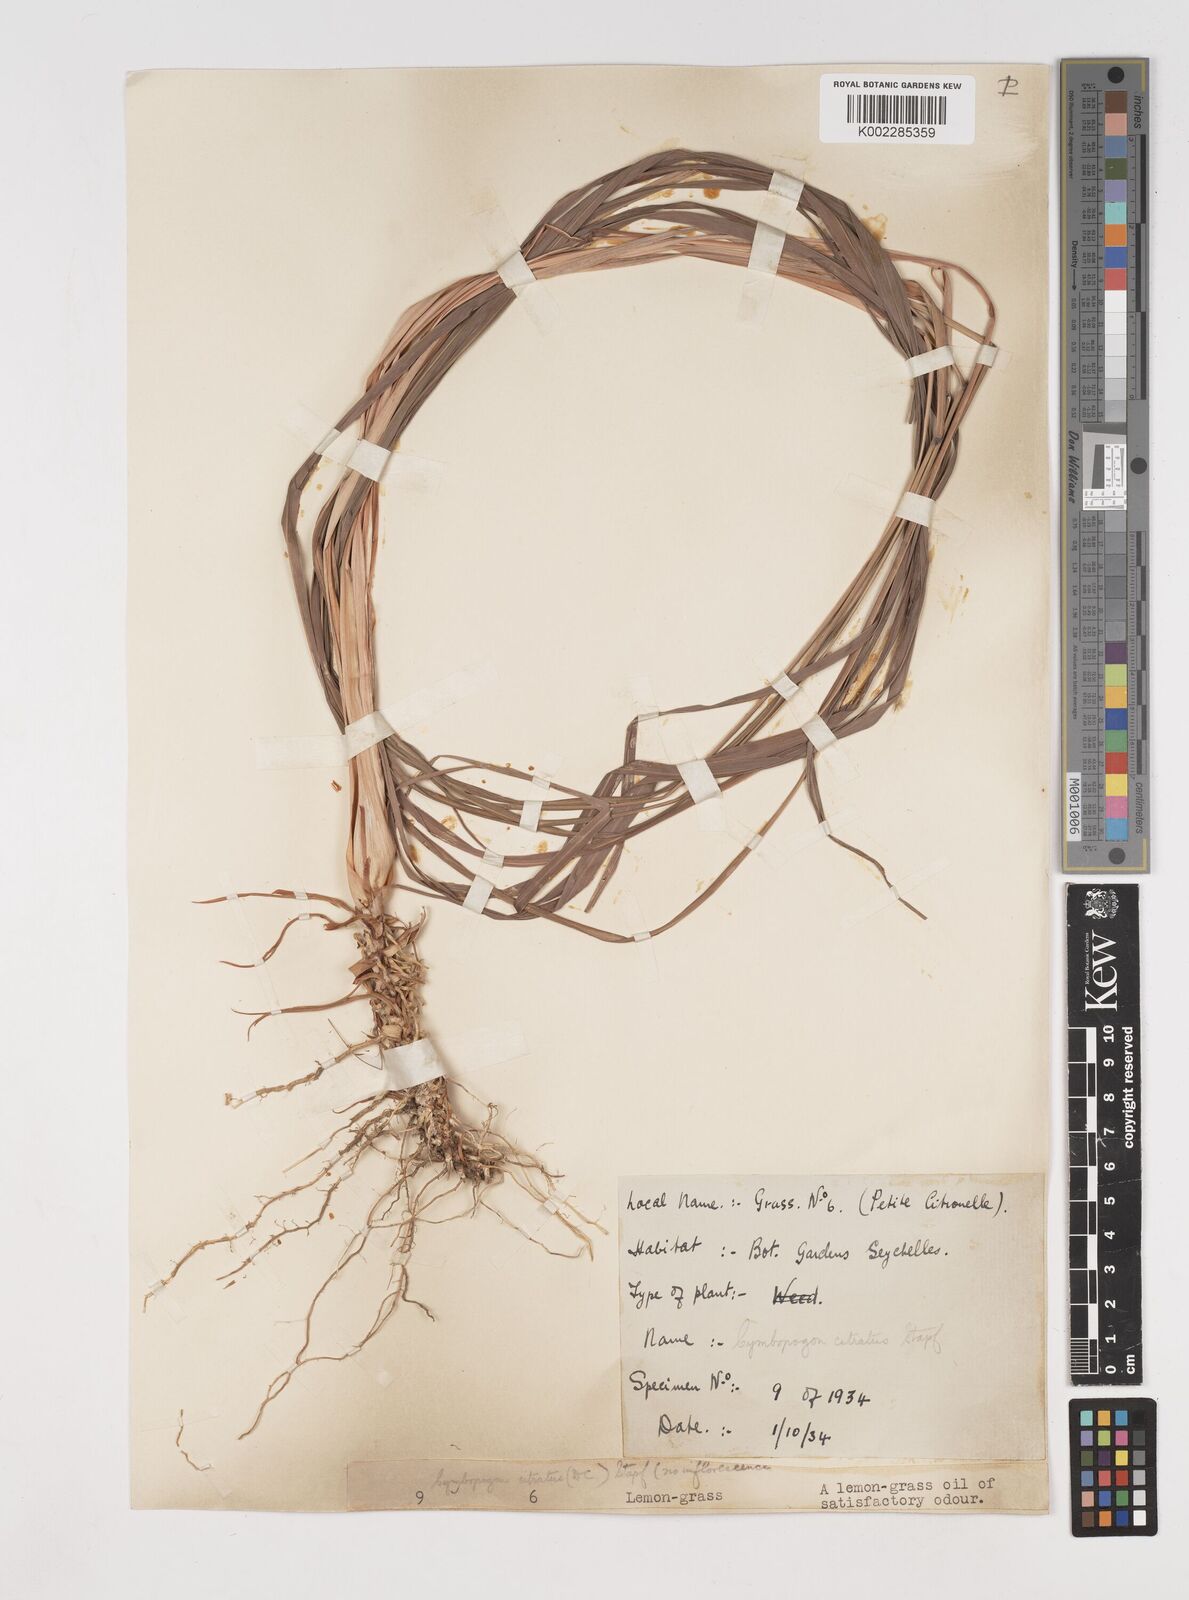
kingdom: Plantae
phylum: Tracheophyta
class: Liliopsida
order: Poales
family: Poaceae
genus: Cymbopogon
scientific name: Cymbopogon citratus
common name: Lemon grass
